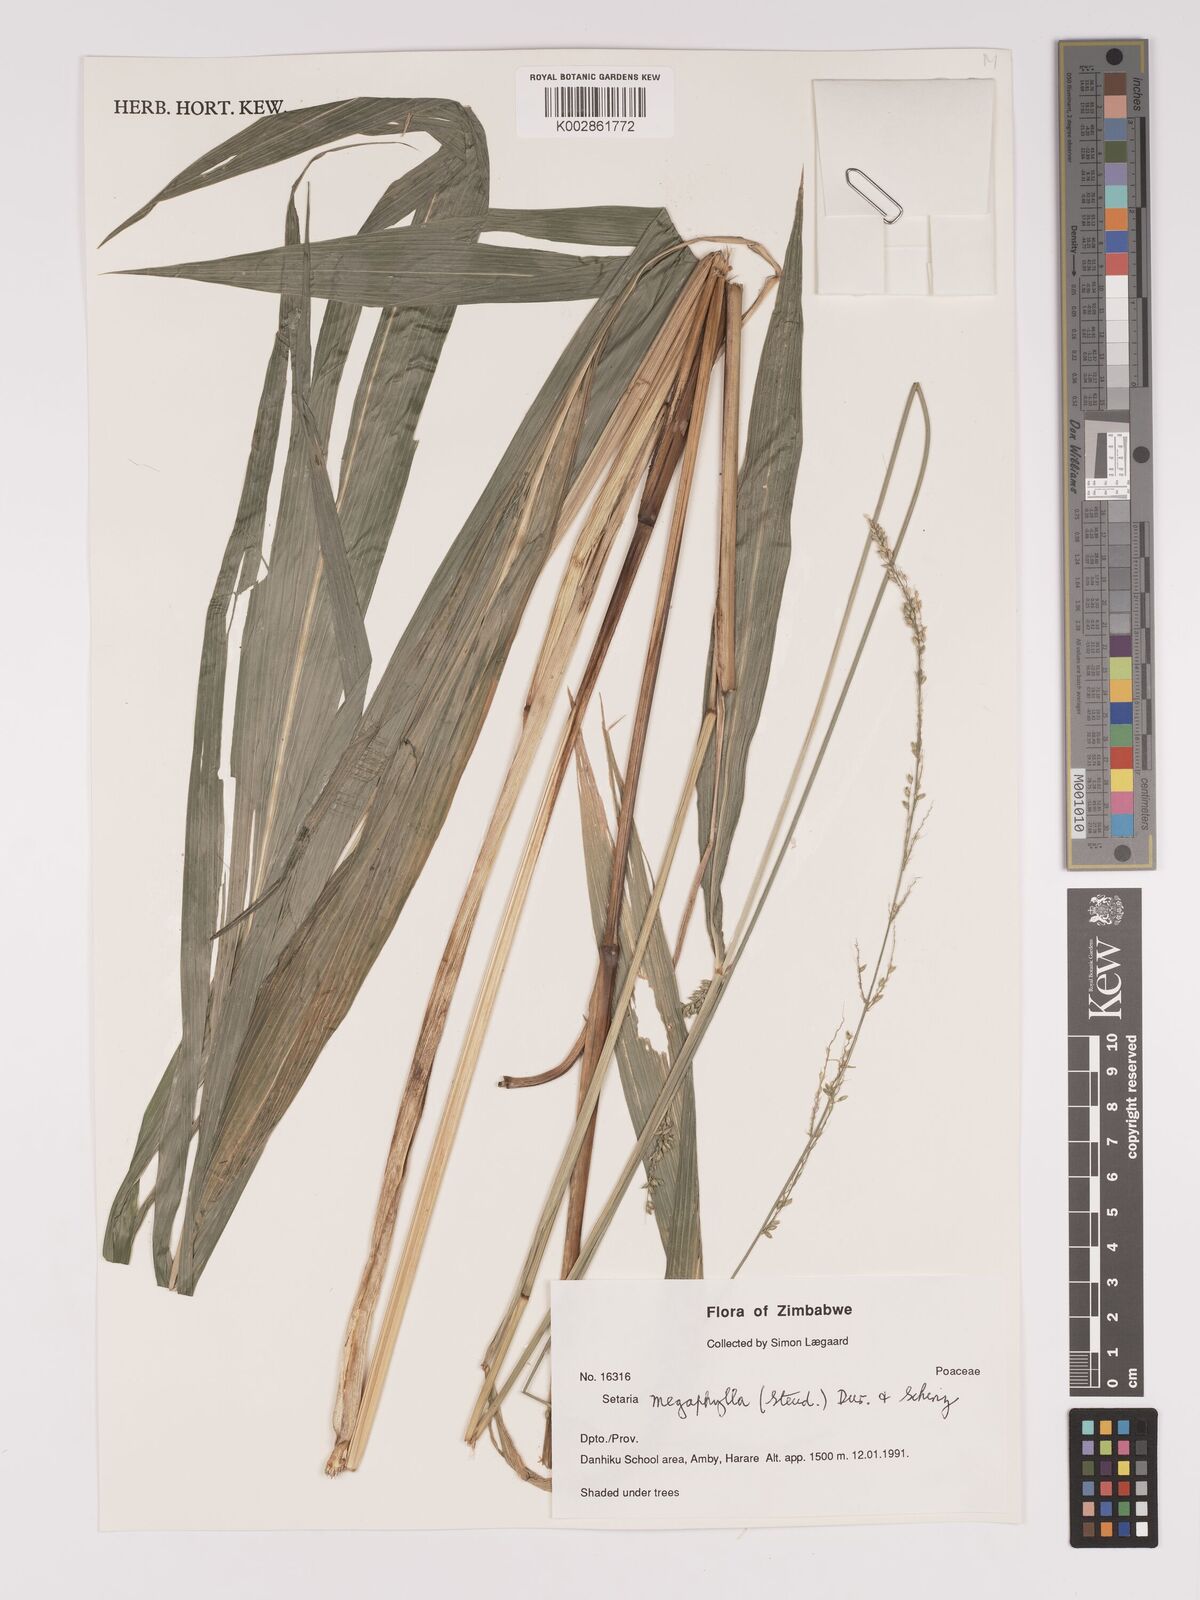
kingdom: Plantae
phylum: Tracheophyta
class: Liliopsida
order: Poales
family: Poaceae
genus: Setaria
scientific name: Setaria megaphylla
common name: Bigleaf bristlegrass
